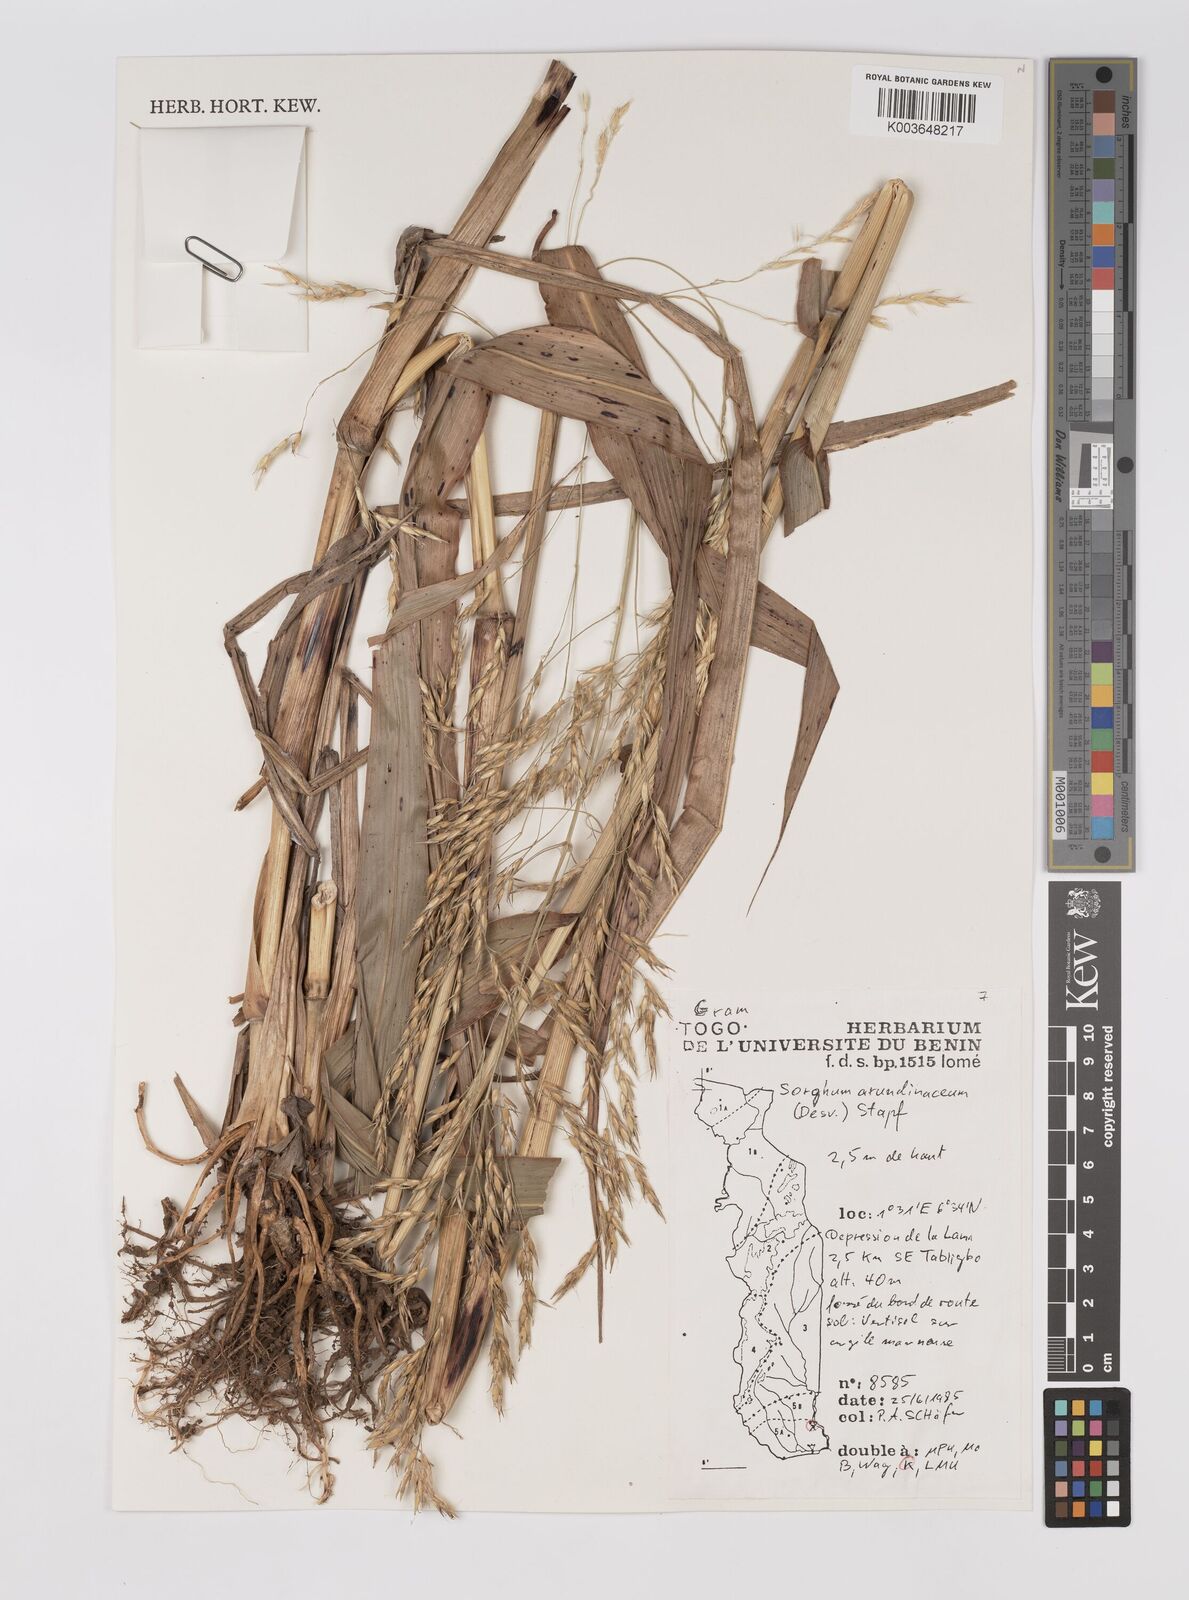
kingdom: Plantae
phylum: Tracheophyta
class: Liliopsida
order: Poales
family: Poaceae
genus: Sorghum
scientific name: Sorghum arundinaceum
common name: Sorghum
